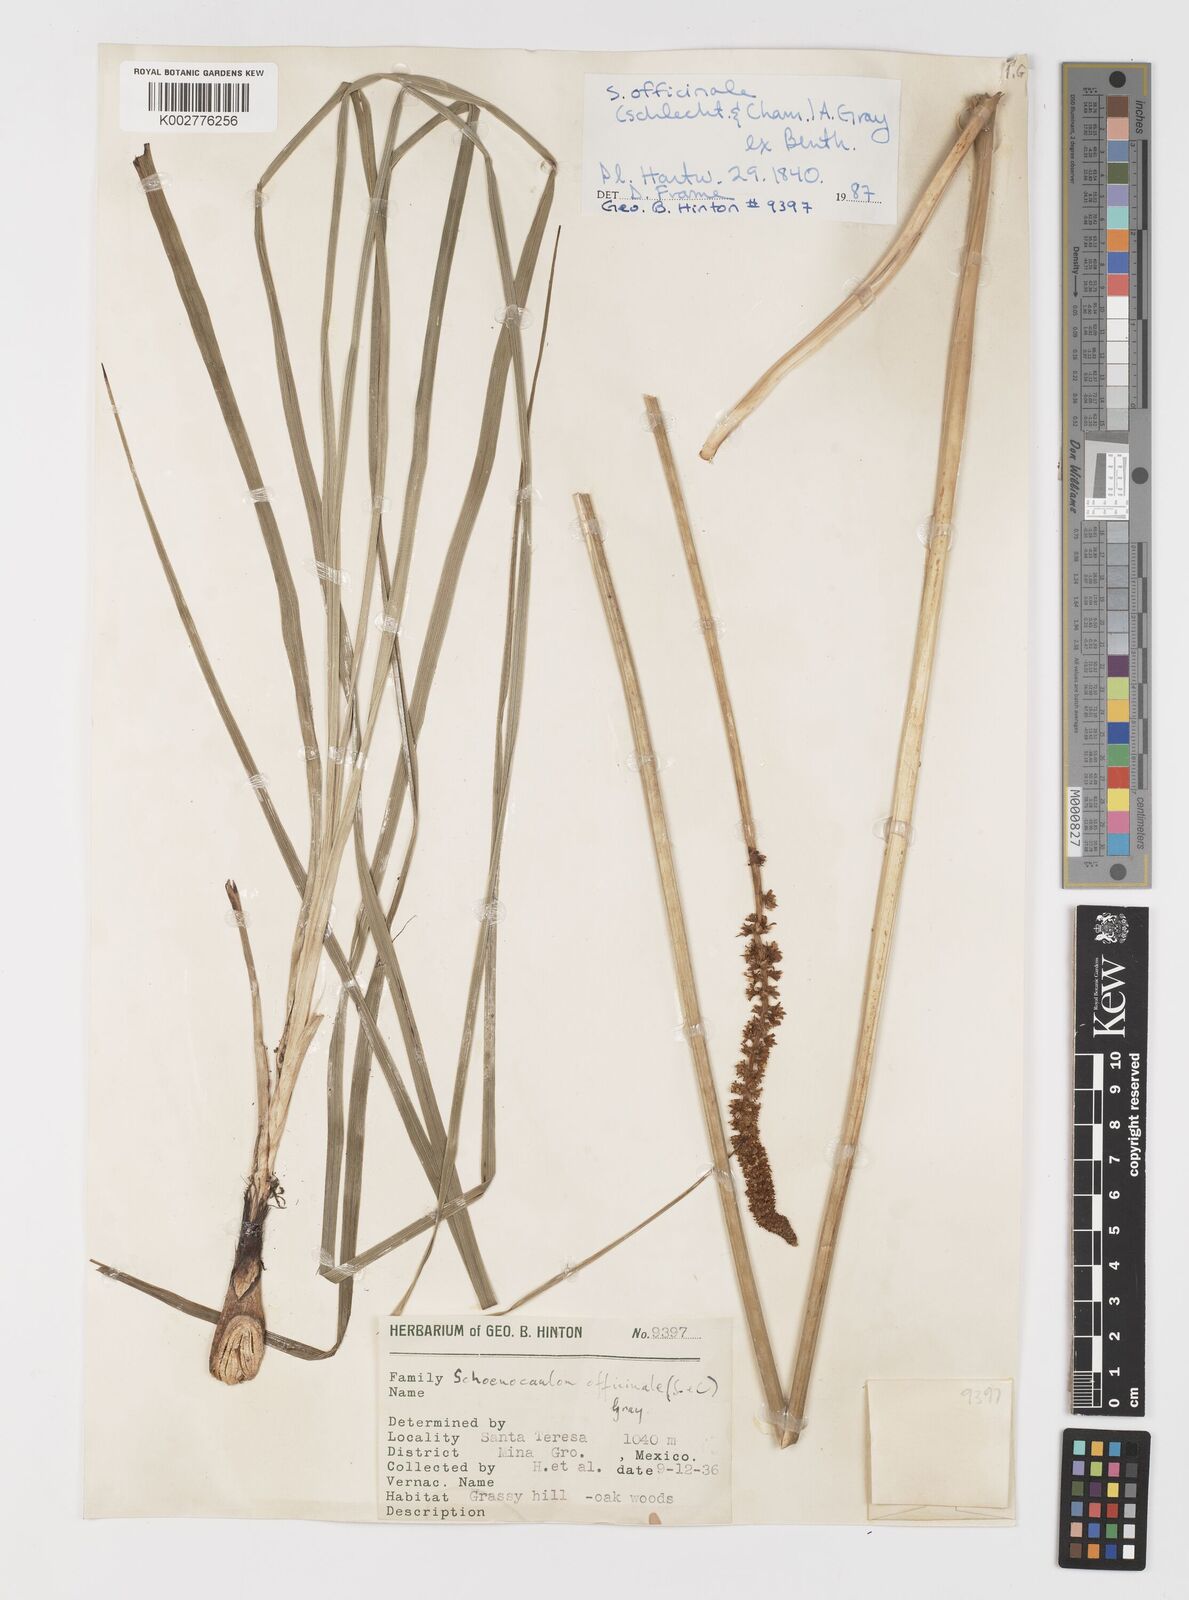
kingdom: Plantae
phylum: Tracheophyta
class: Liliopsida
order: Liliales
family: Melanthiaceae
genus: Schoenocaulon
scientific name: Schoenocaulon officinale
